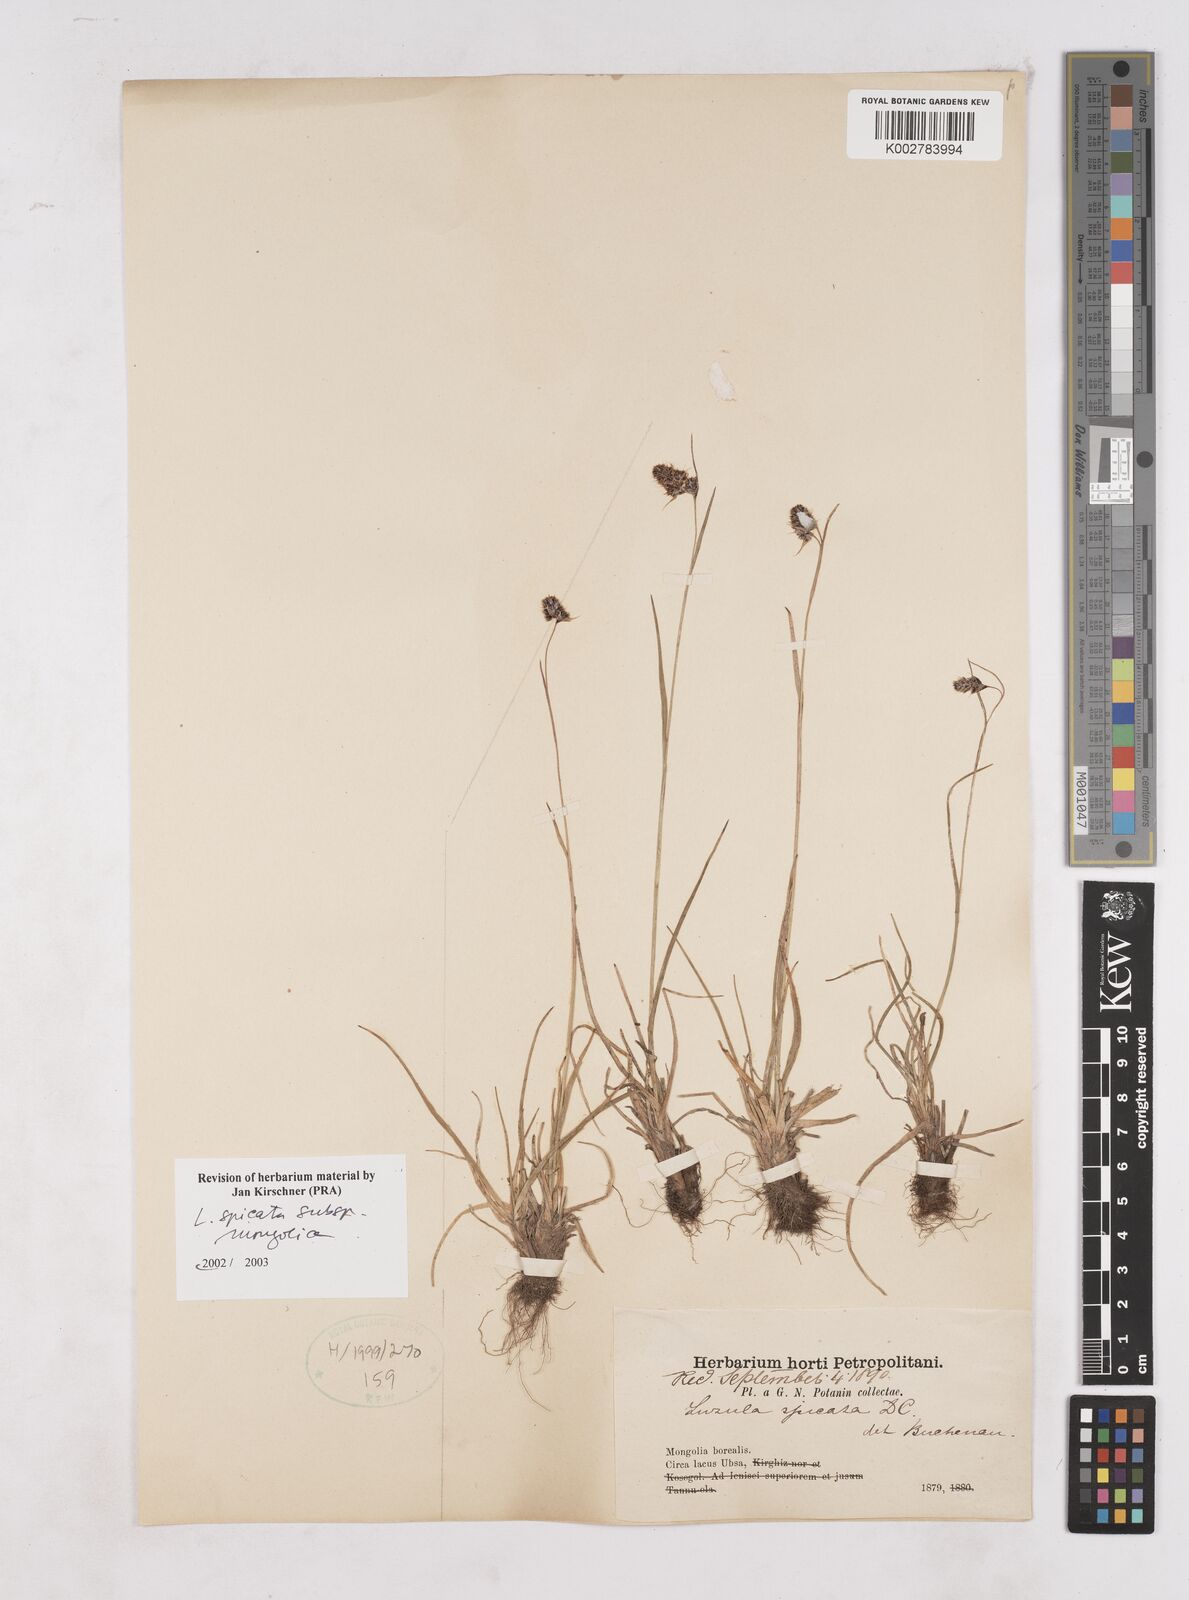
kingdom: Plantae
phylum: Tracheophyta
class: Liliopsida
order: Poales
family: Juncaceae
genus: Luzula
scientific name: Luzula spicata
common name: Spiked wood-rush
